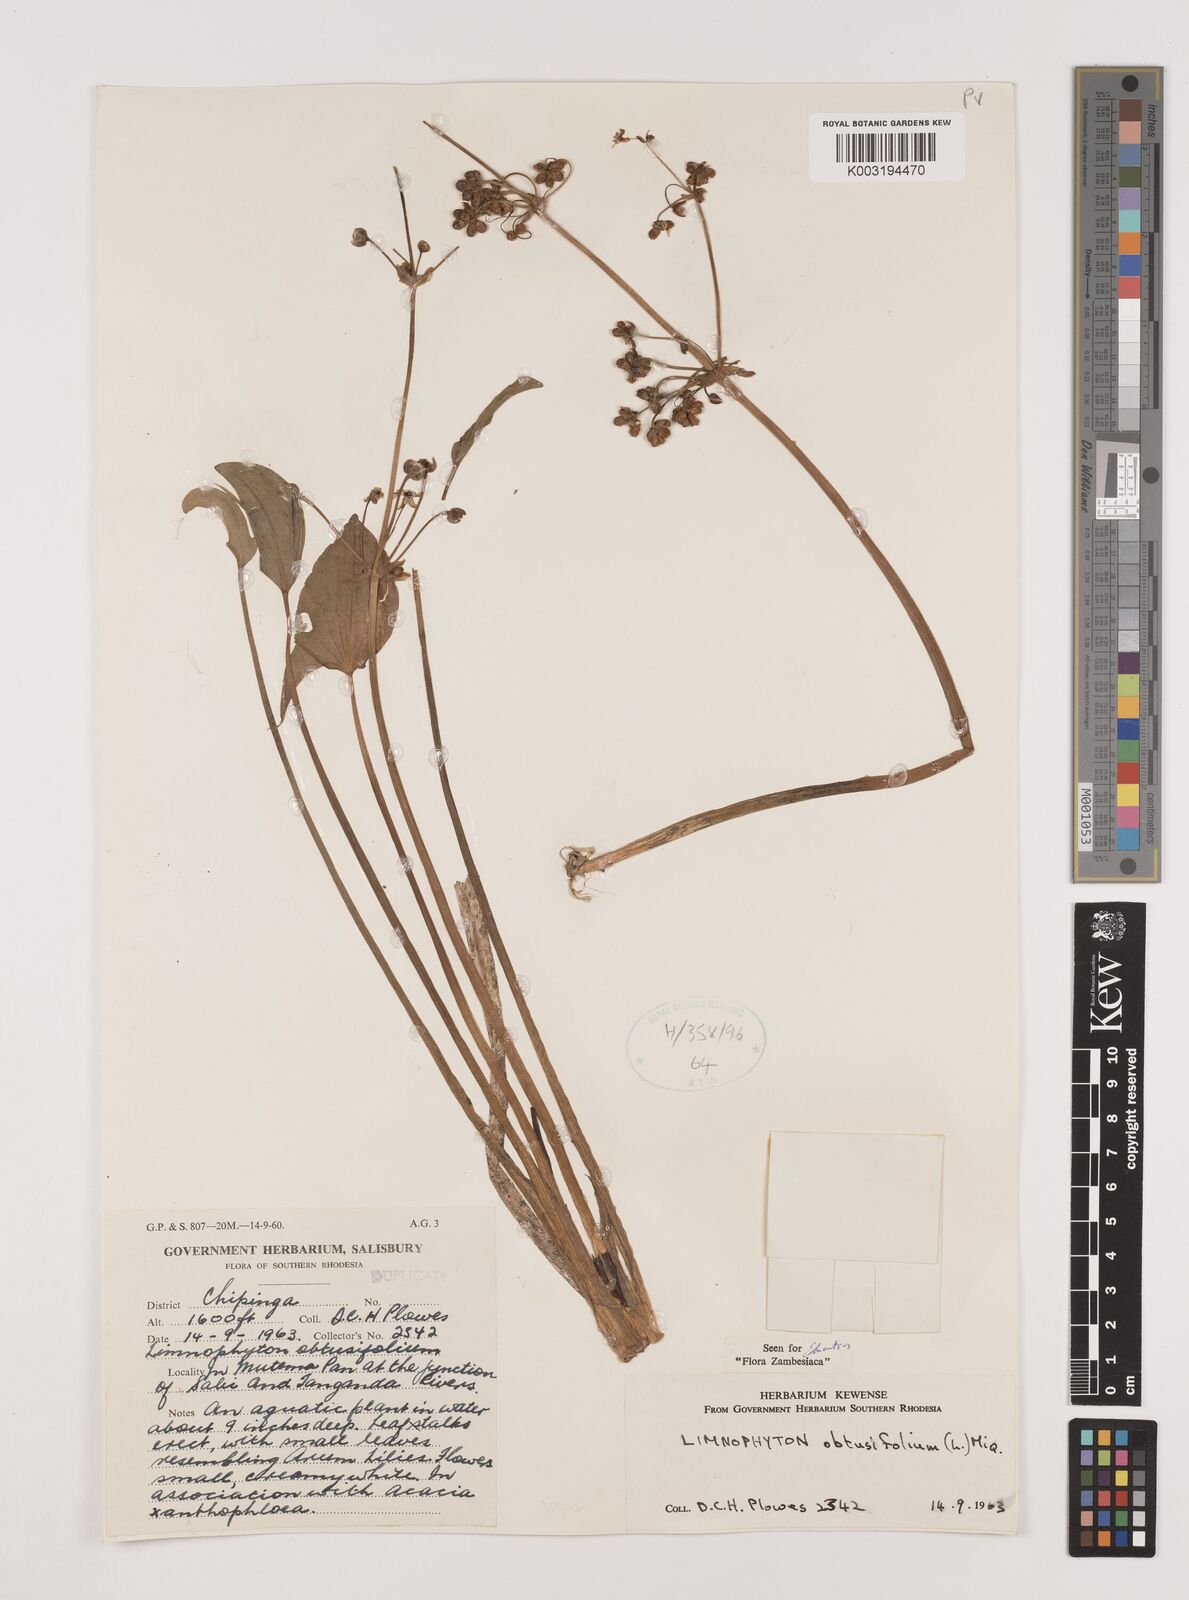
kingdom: Plantae
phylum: Tracheophyta
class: Liliopsida
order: Alismatales
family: Alismataceae
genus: Limnophyton
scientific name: Limnophyton obtusifolium
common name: Arrow head
